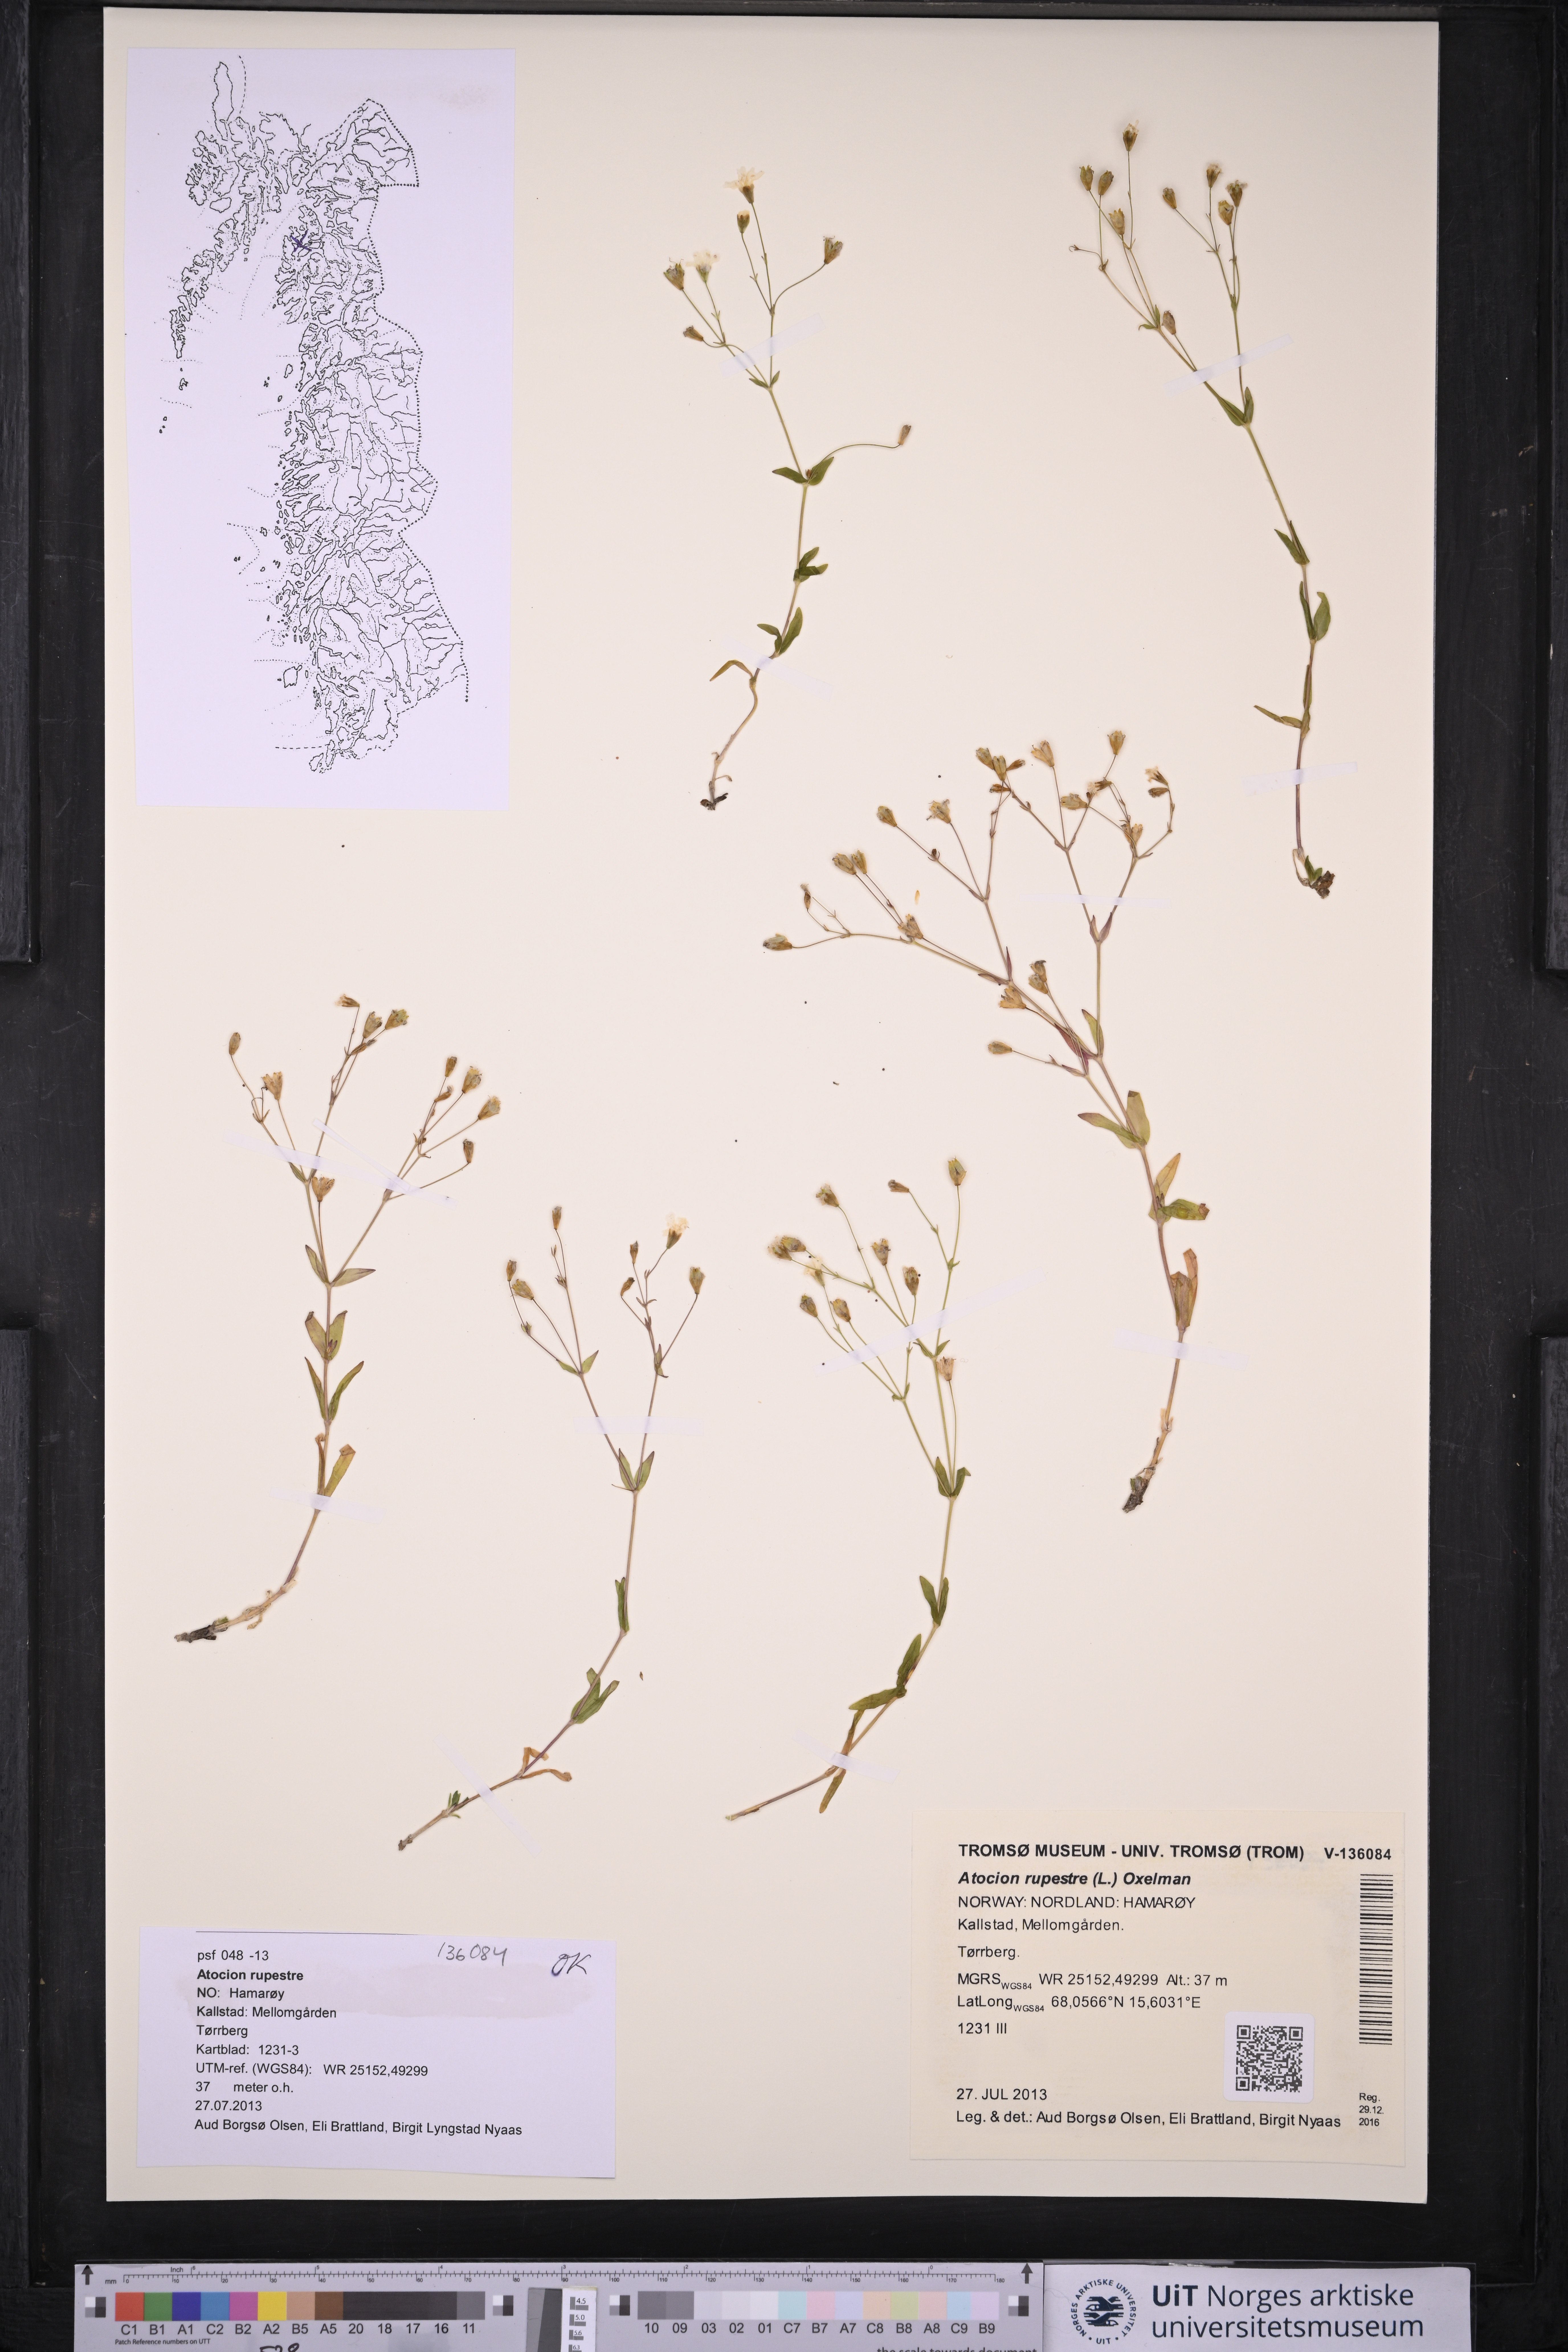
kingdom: Plantae
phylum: Tracheophyta
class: Magnoliopsida
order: Caryophyllales
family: Caryophyllaceae
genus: Atocion
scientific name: Atocion rupestre
